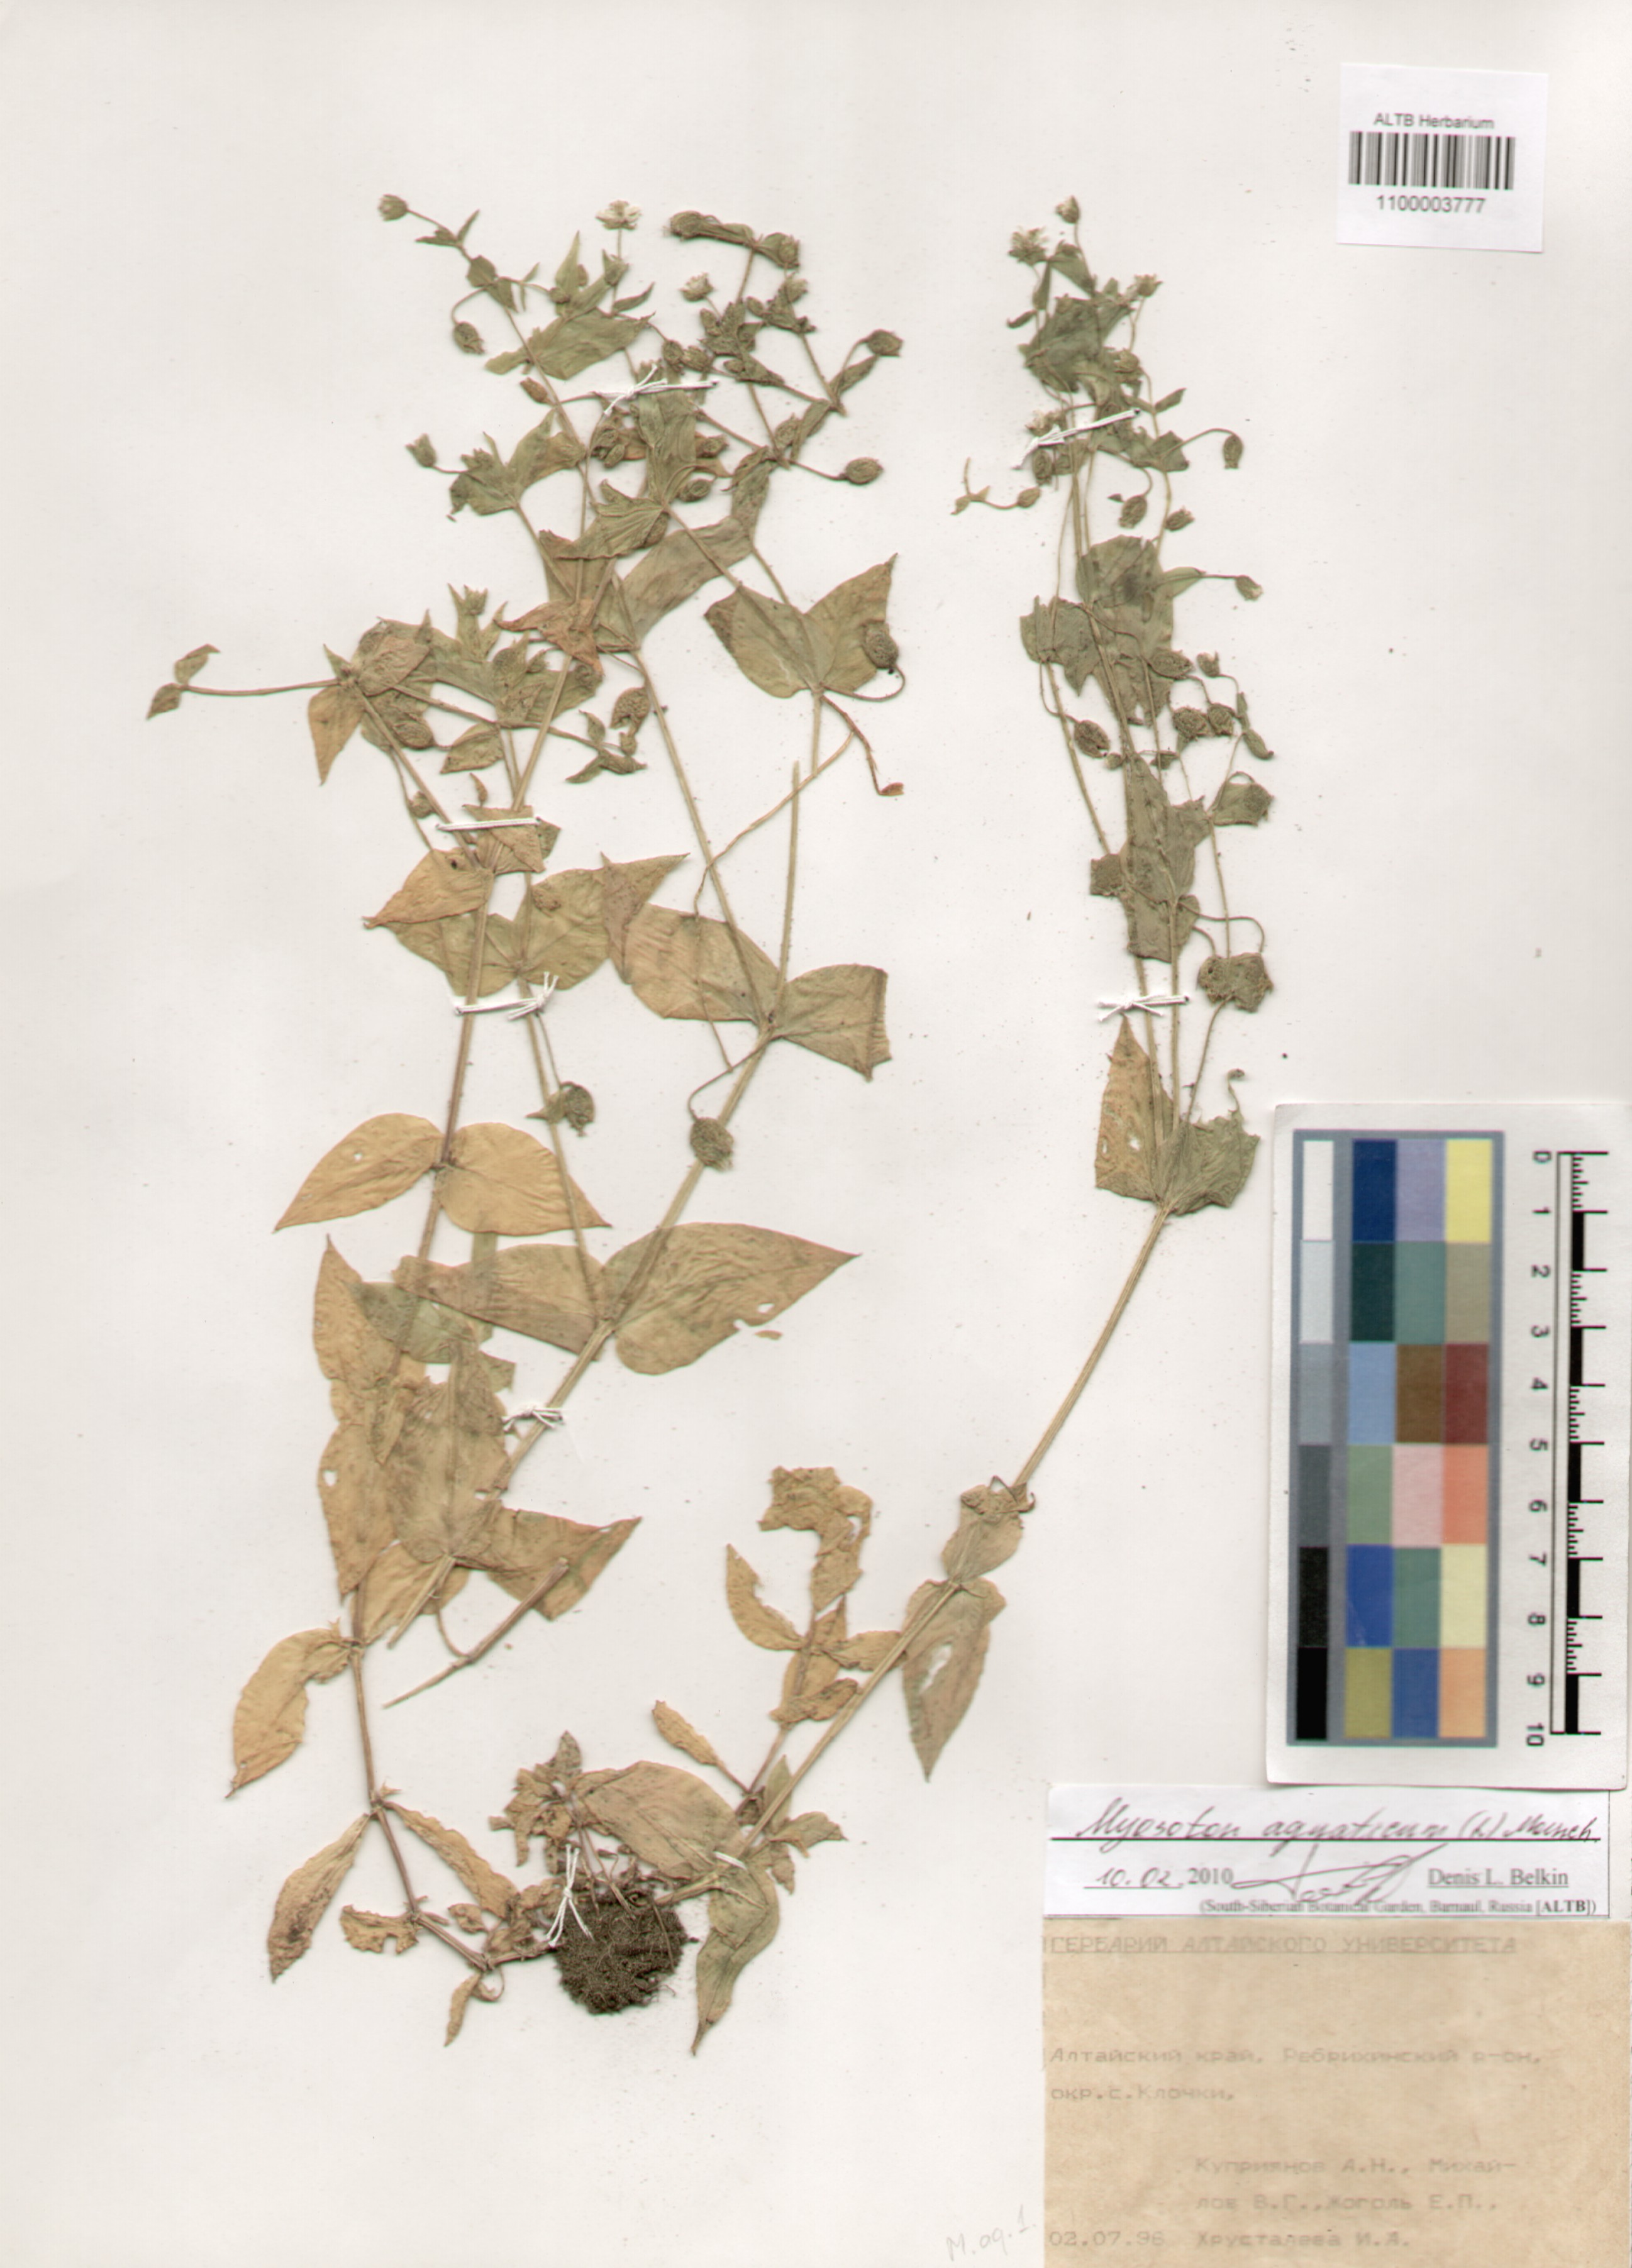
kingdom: Plantae
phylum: Tracheophyta
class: Magnoliopsida
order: Caryophyllales
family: Caryophyllaceae
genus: Stellaria
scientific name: Stellaria aquatica
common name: Water chickweed
